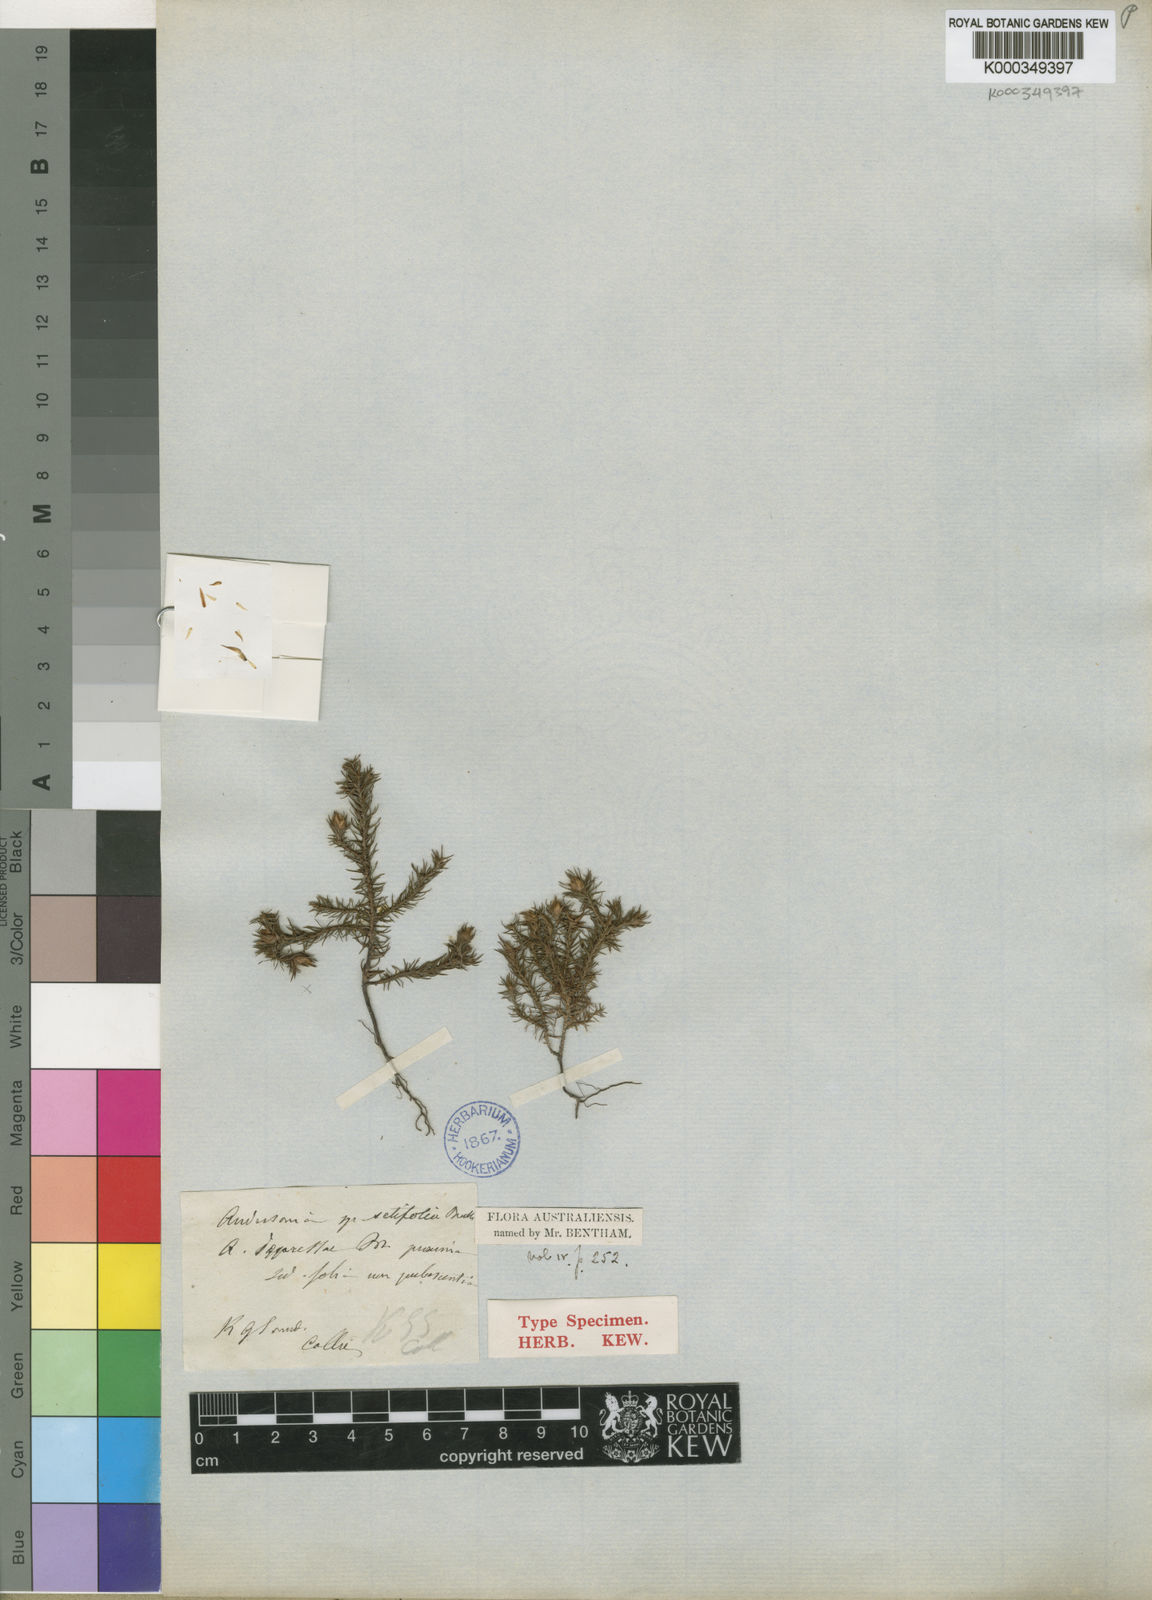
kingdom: Plantae
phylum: Tracheophyta
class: Magnoliopsida
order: Ericales
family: Ericaceae
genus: Andersonia
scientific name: Andersonia setifolia
